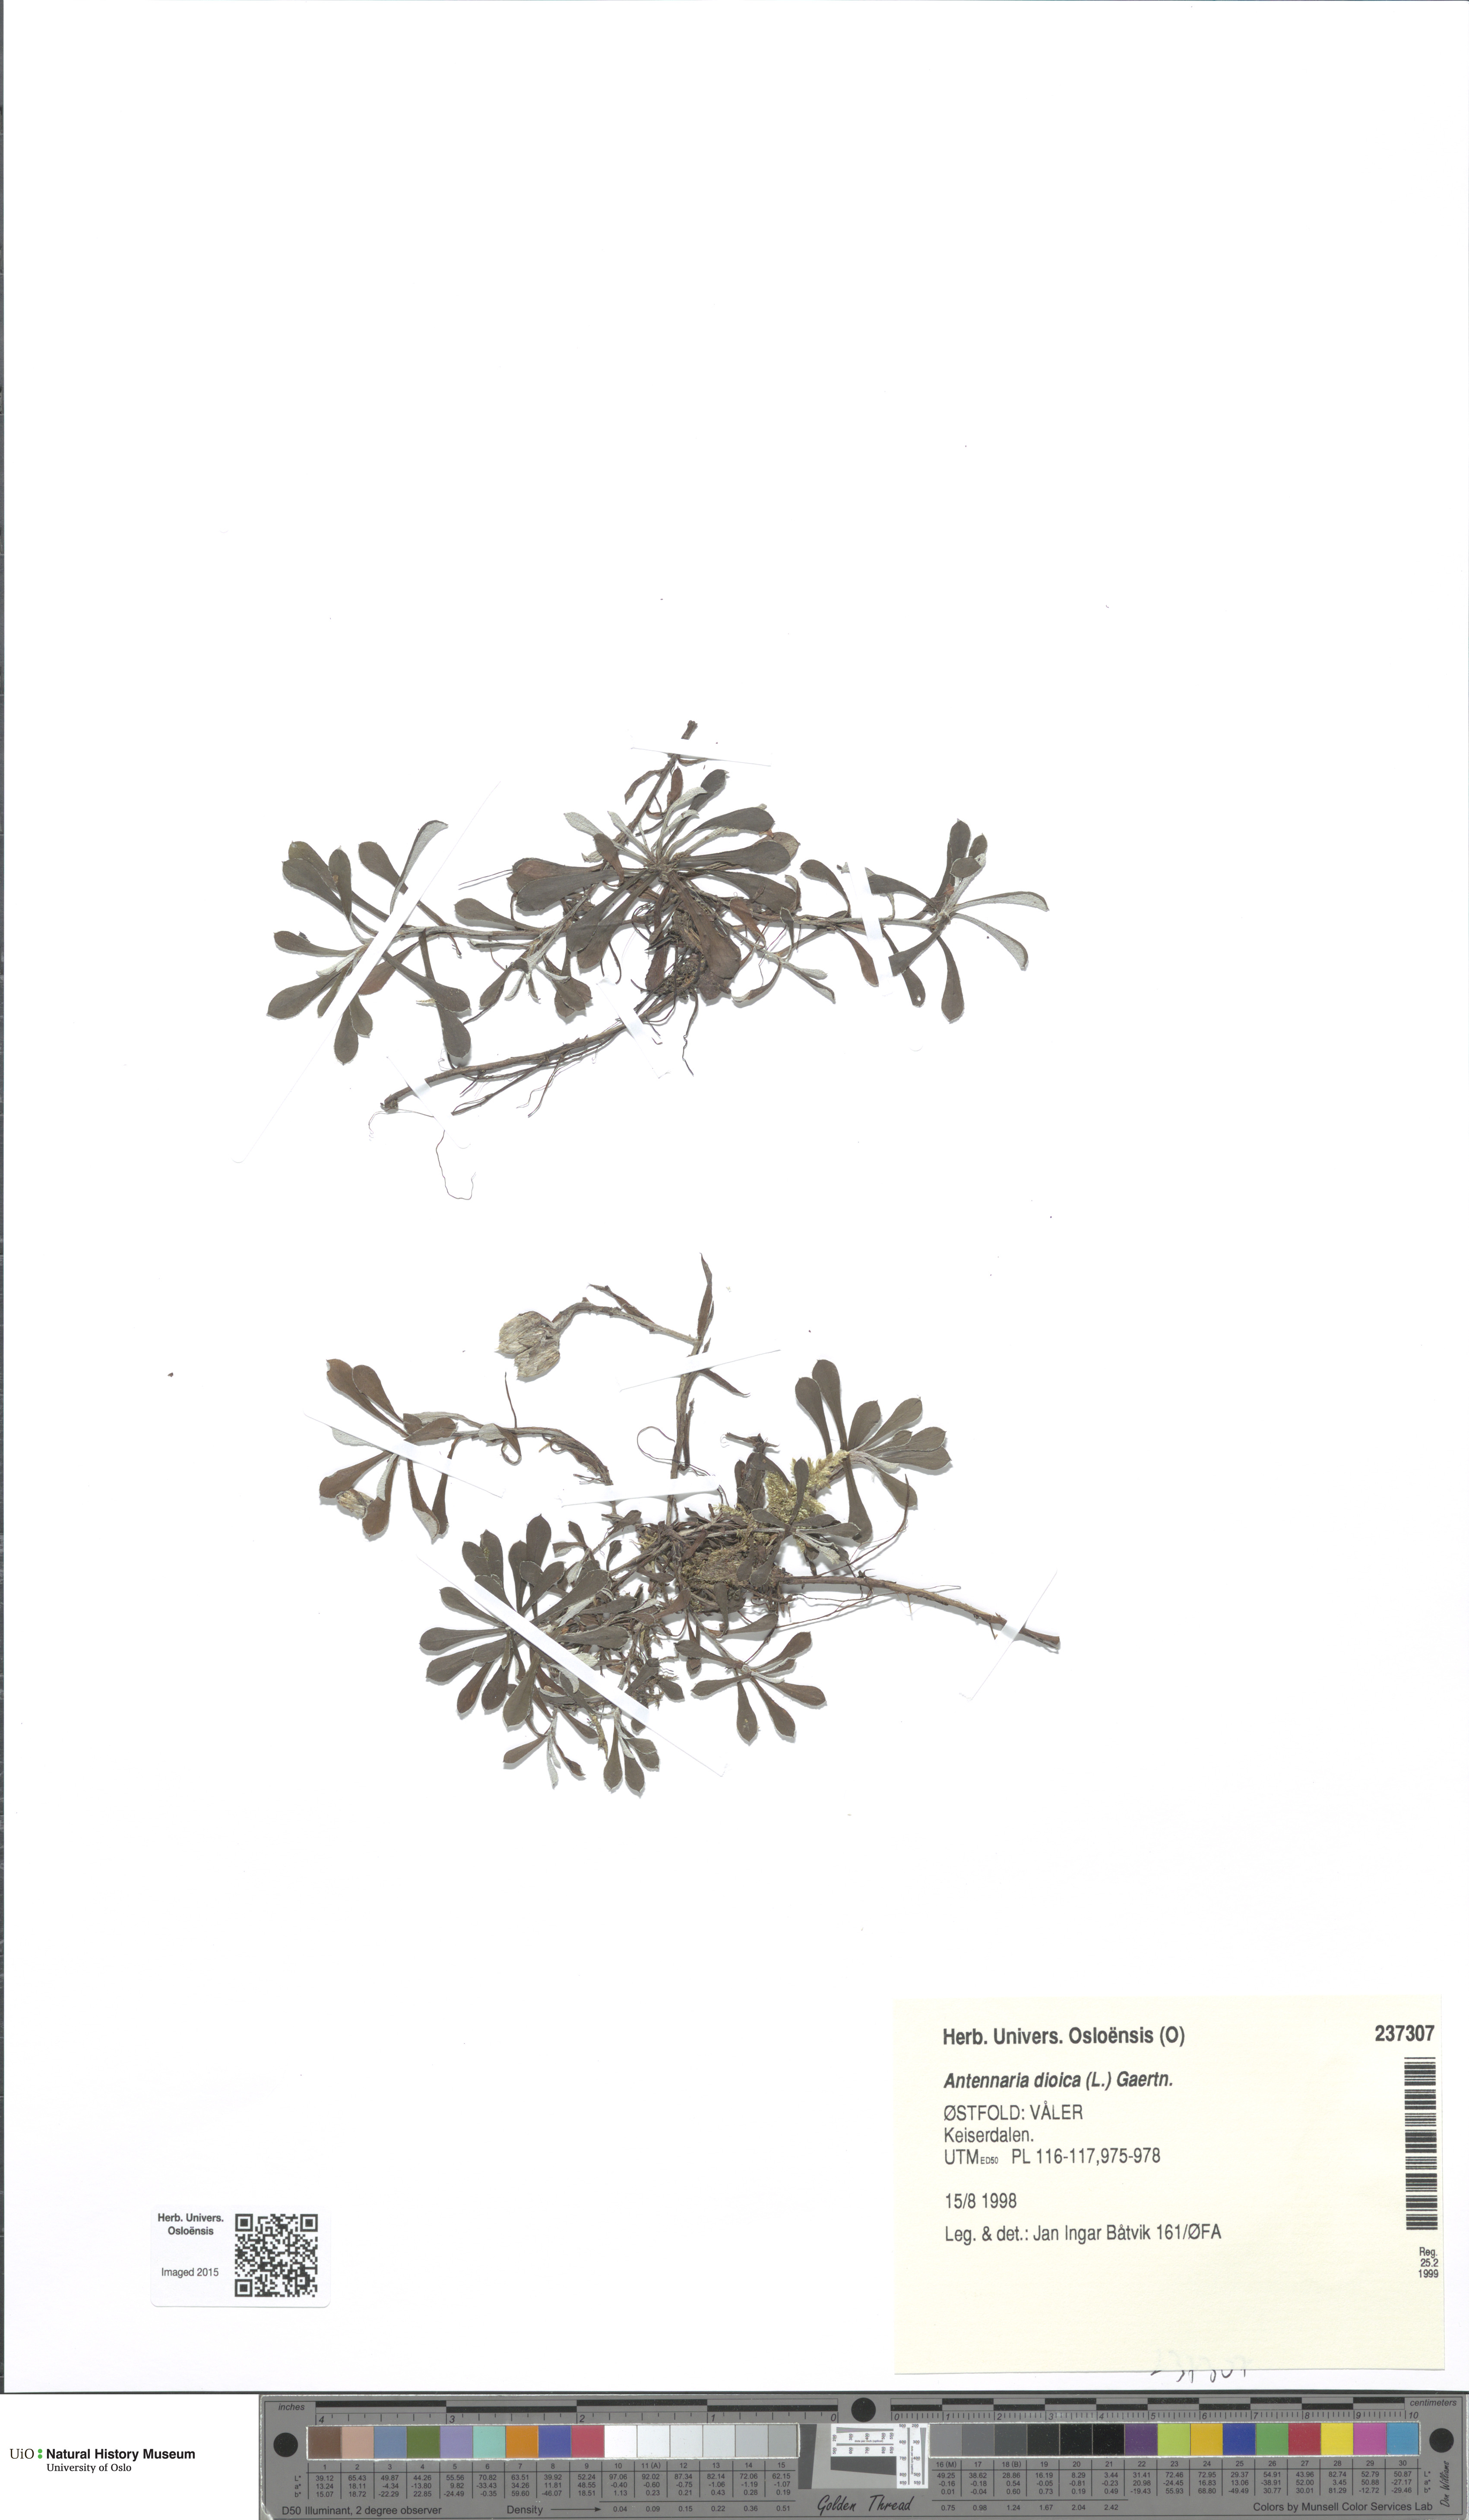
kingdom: Plantae
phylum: Tracheophyta
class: Magnoliopsida
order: Asterales
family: Asteraceae
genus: Antennaria
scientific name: Antennaria dioica
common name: Mountain everlasting
